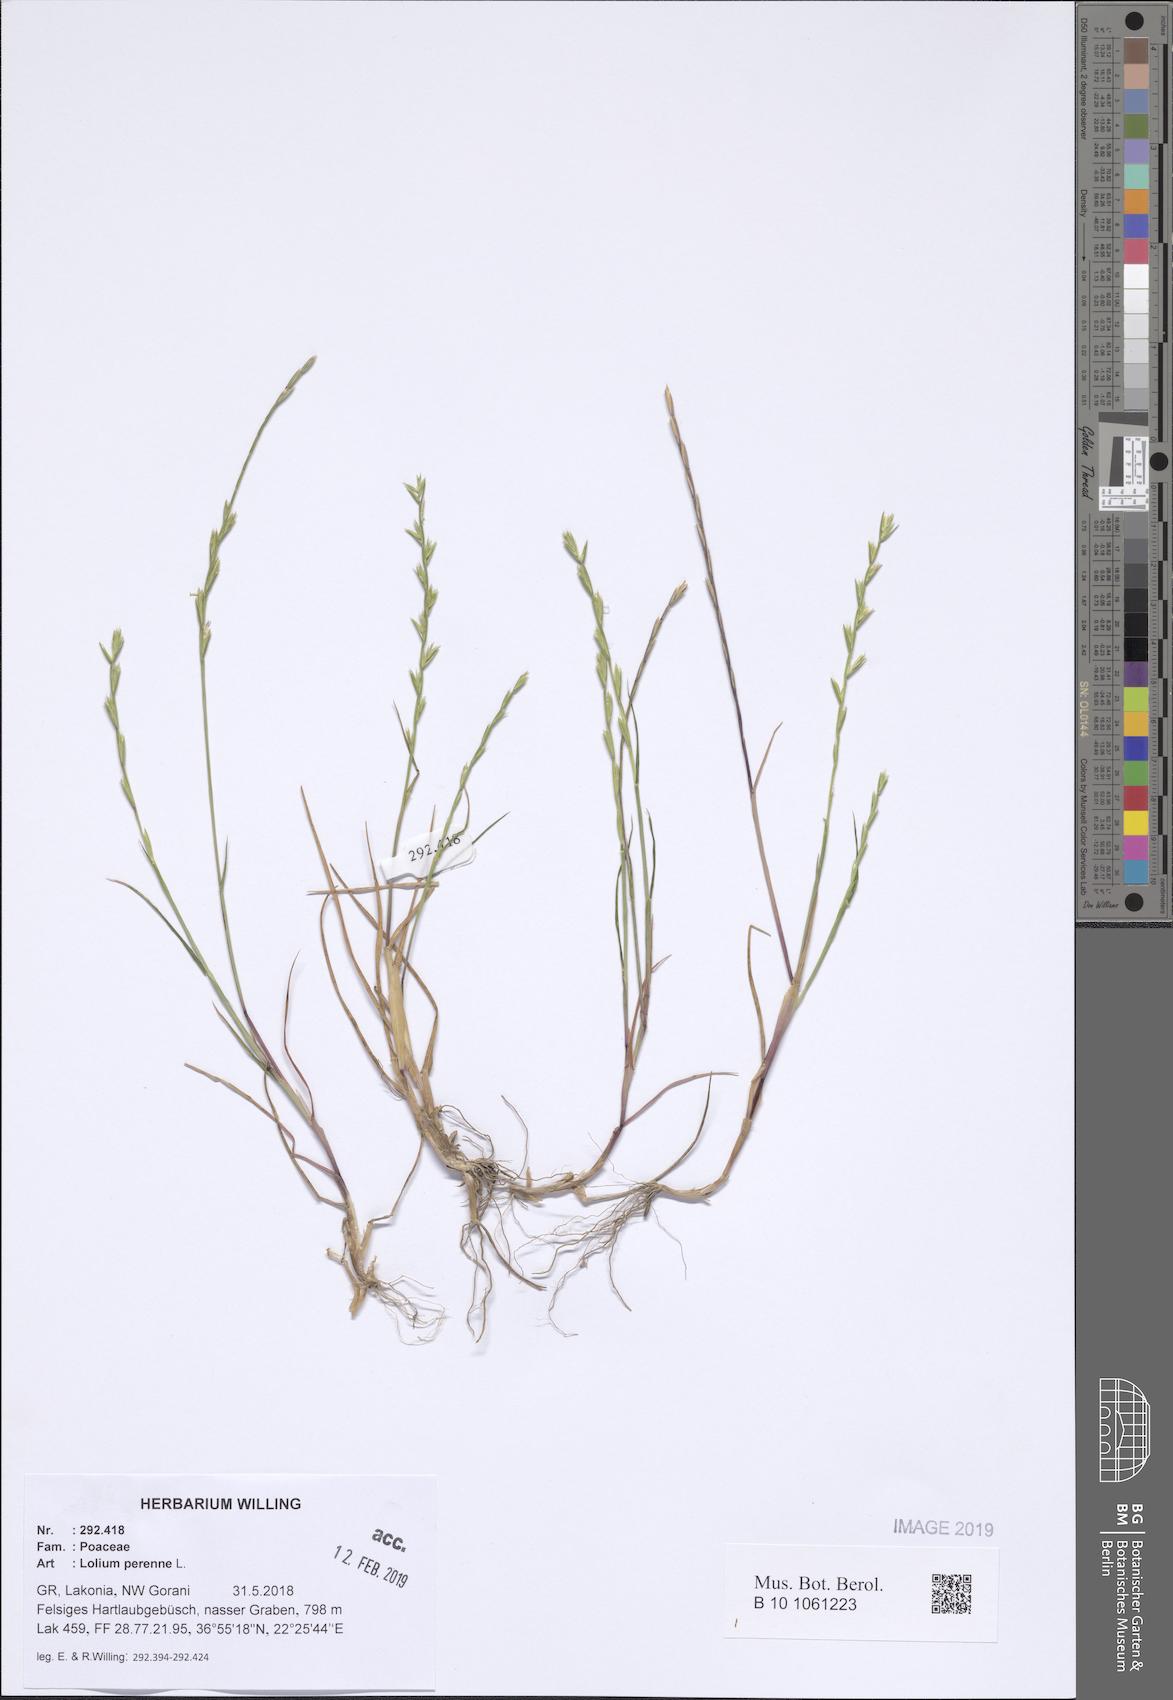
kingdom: Plantae
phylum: Tracheophyta
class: Liliopsida
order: Poales
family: Poaceae
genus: Lolium
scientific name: Lolium perenne
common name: Perennial ryegrass
